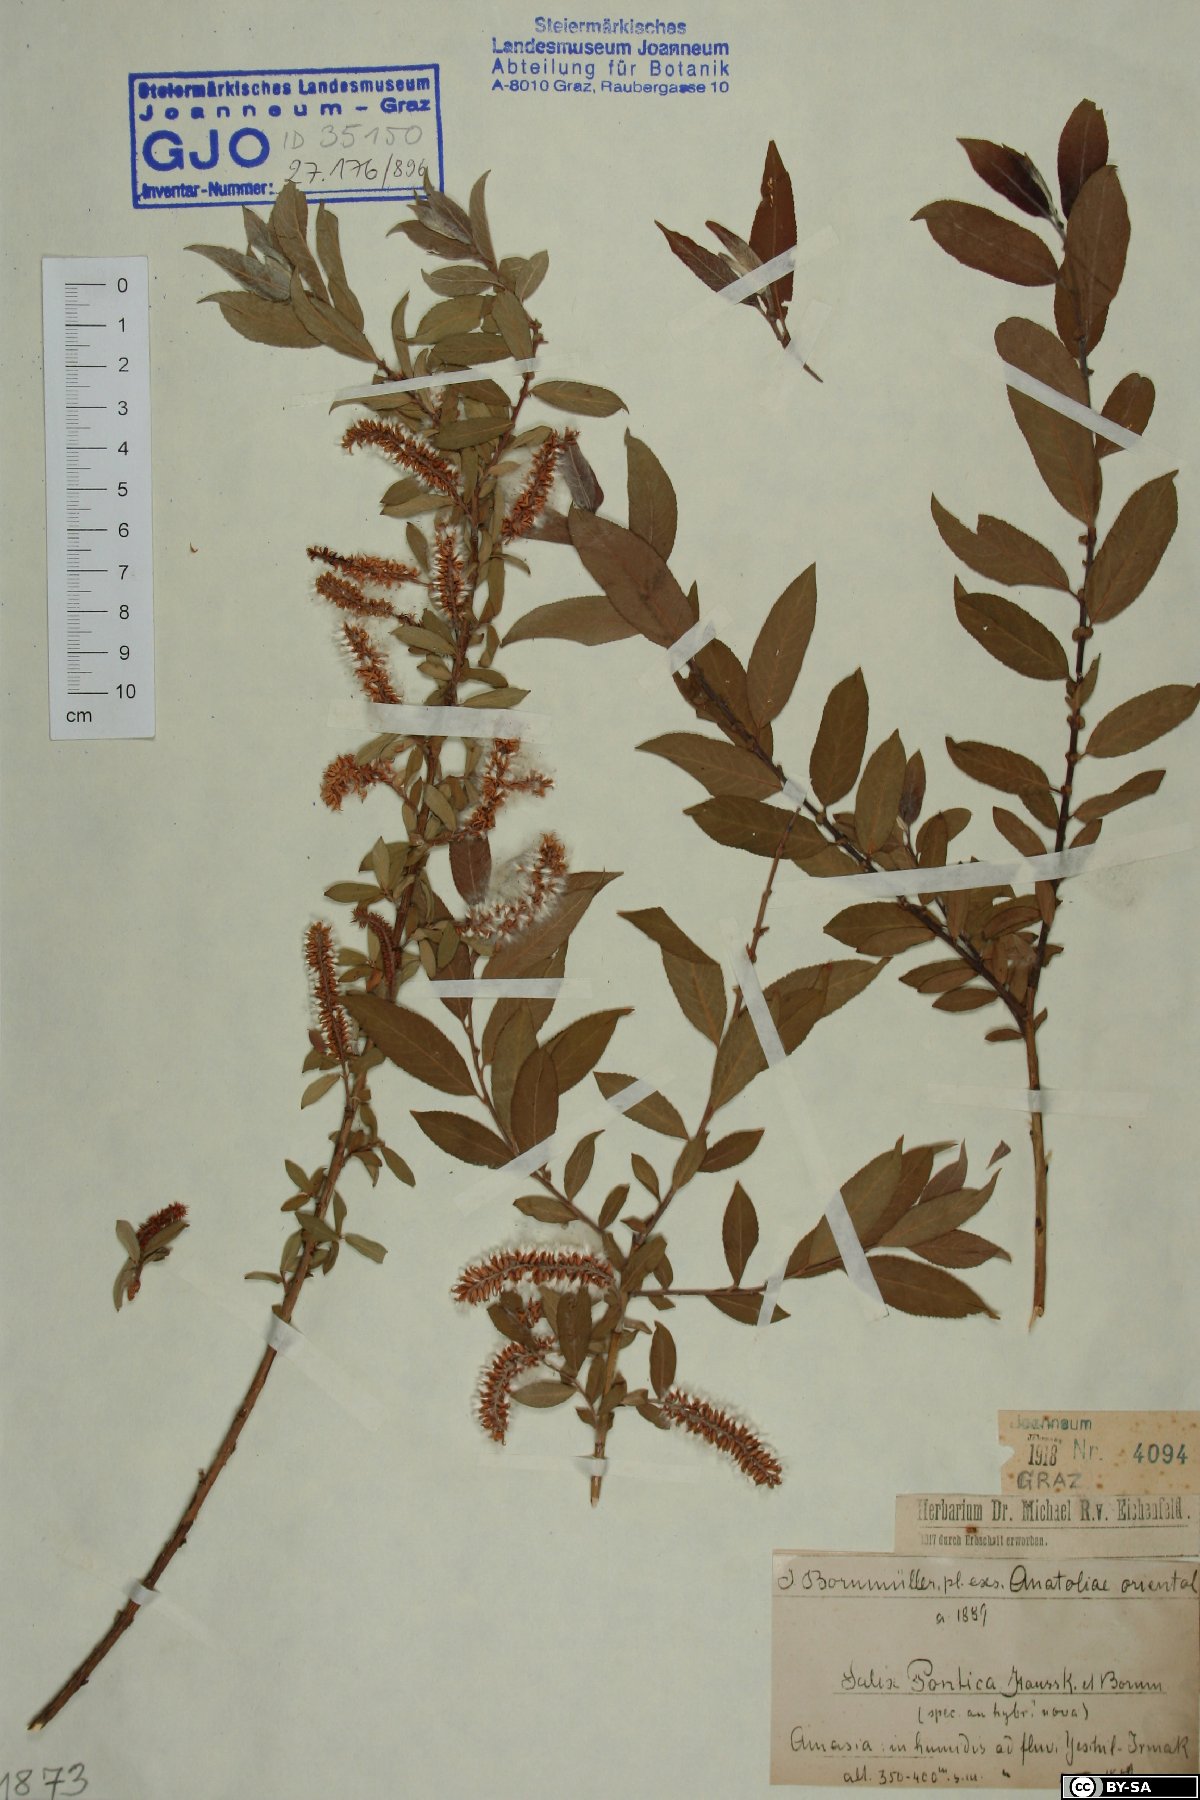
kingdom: Plantae
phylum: Tracheophyta
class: Magnoliopsida
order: Malpighiales
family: Salicaceae
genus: Salix
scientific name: Salix triandra
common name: Almond willow
